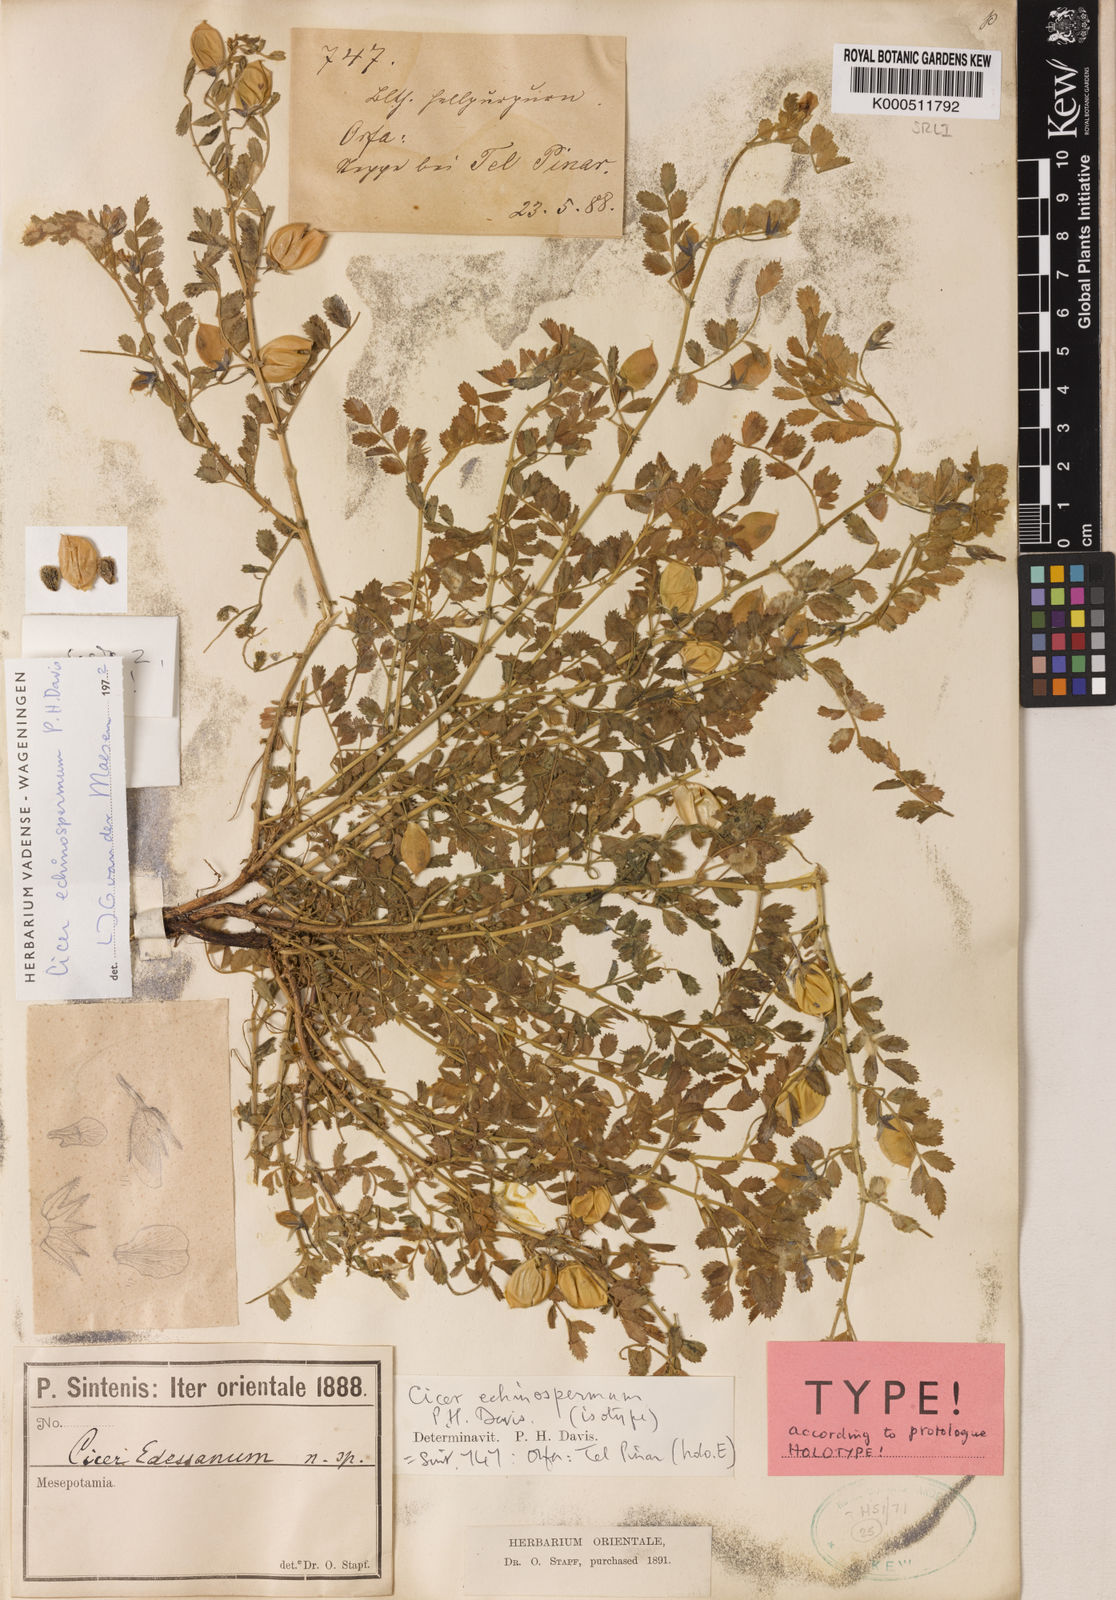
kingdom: Plantae
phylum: Tracheophyta
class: Magnoliopsida
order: Fabales
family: Fabaceae
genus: Cicer
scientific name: Cicer echinospermum
